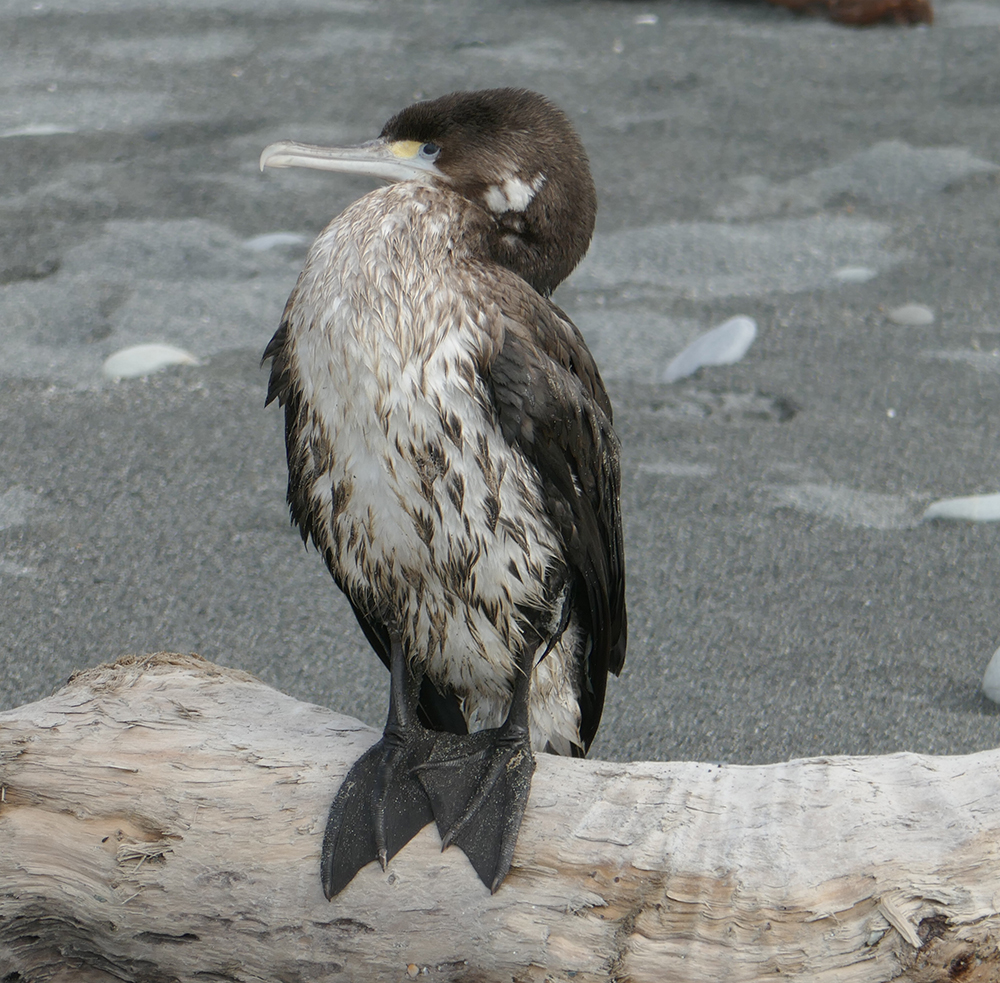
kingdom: Animalia
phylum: Chordata
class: Aves
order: Suliformes
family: Phalacrocoracidae
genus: Phalacrocorax
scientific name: Phalacrocorax varius
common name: Pied cormorant
